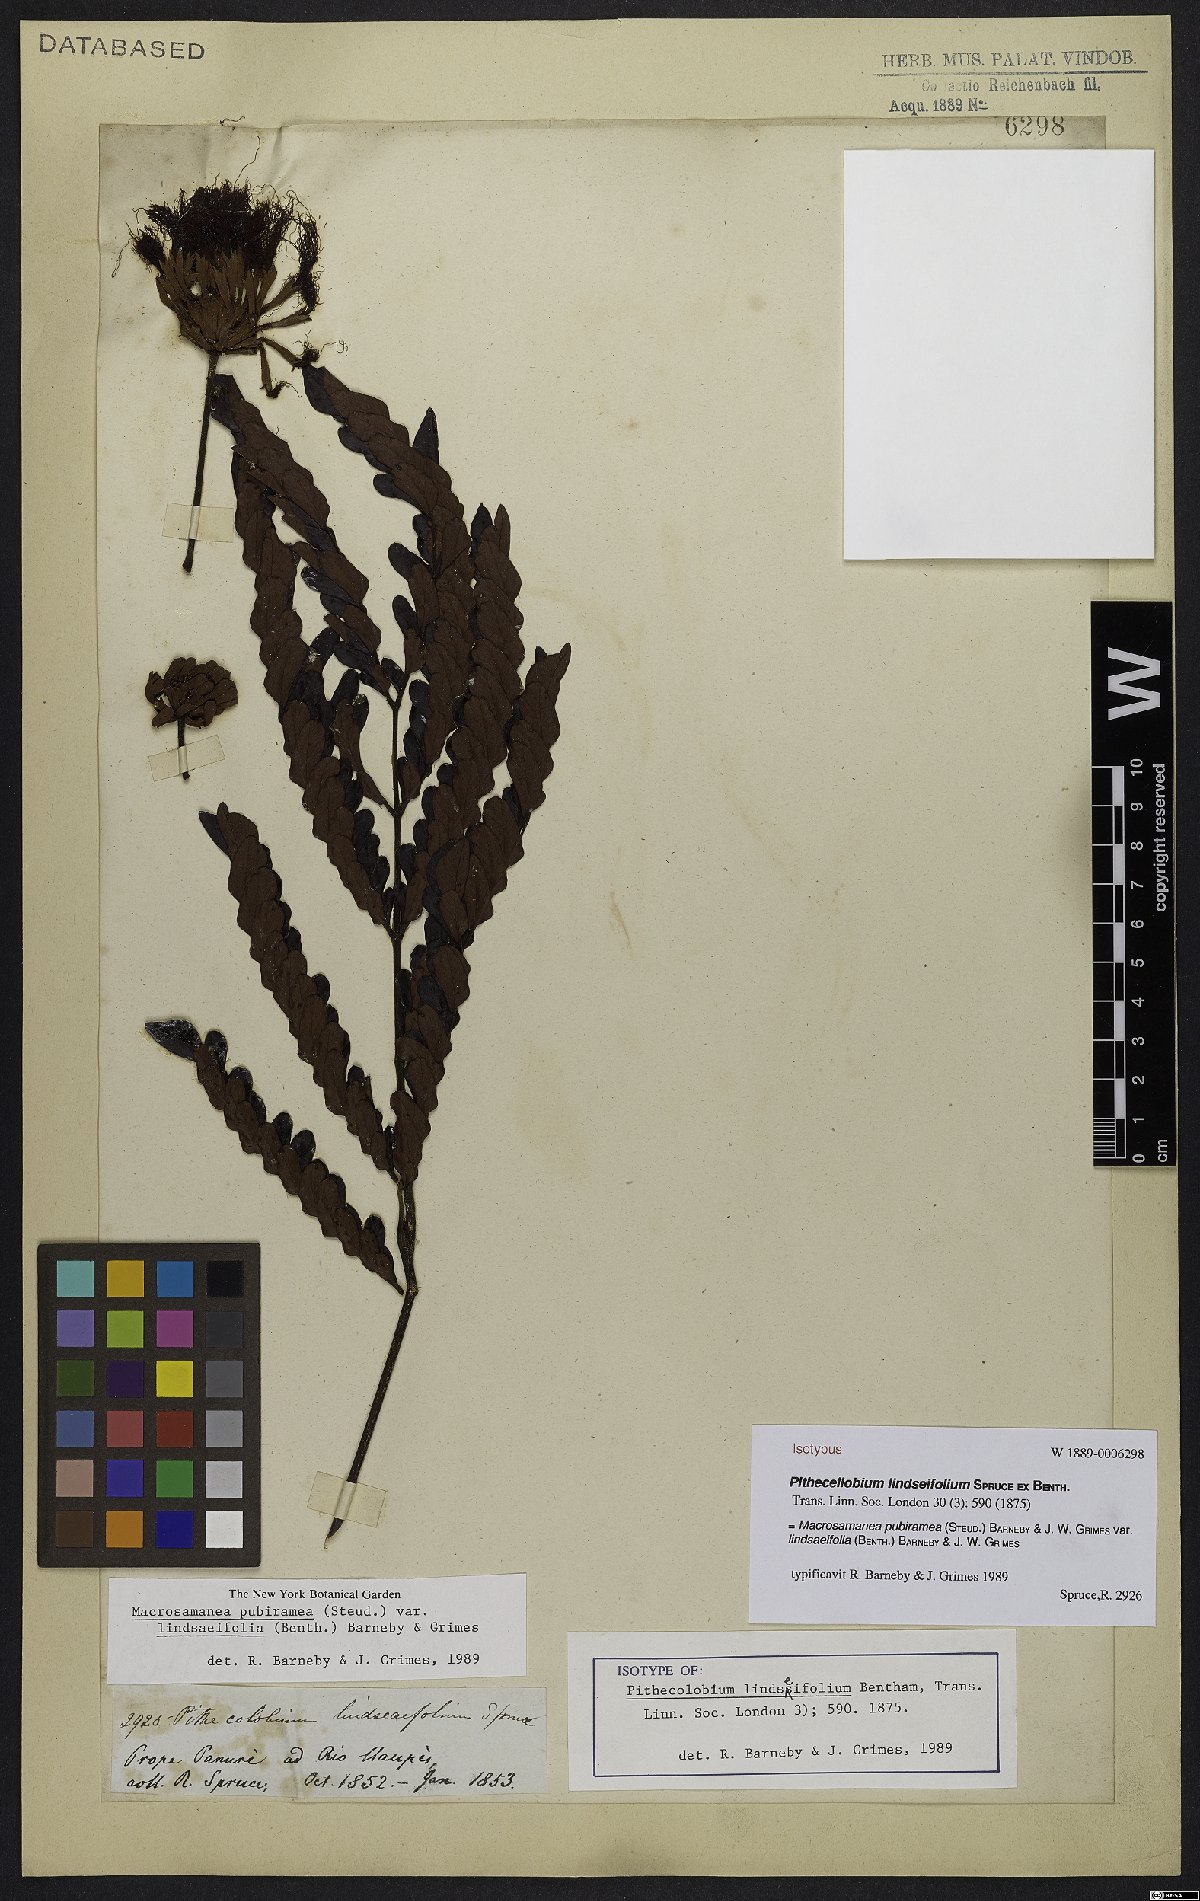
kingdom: Plantae
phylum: Tracheophyta
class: Magnoliopsida
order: Fabales
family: Fabaceae
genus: Macrosamanea
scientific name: Macrosamanea pubiramea
